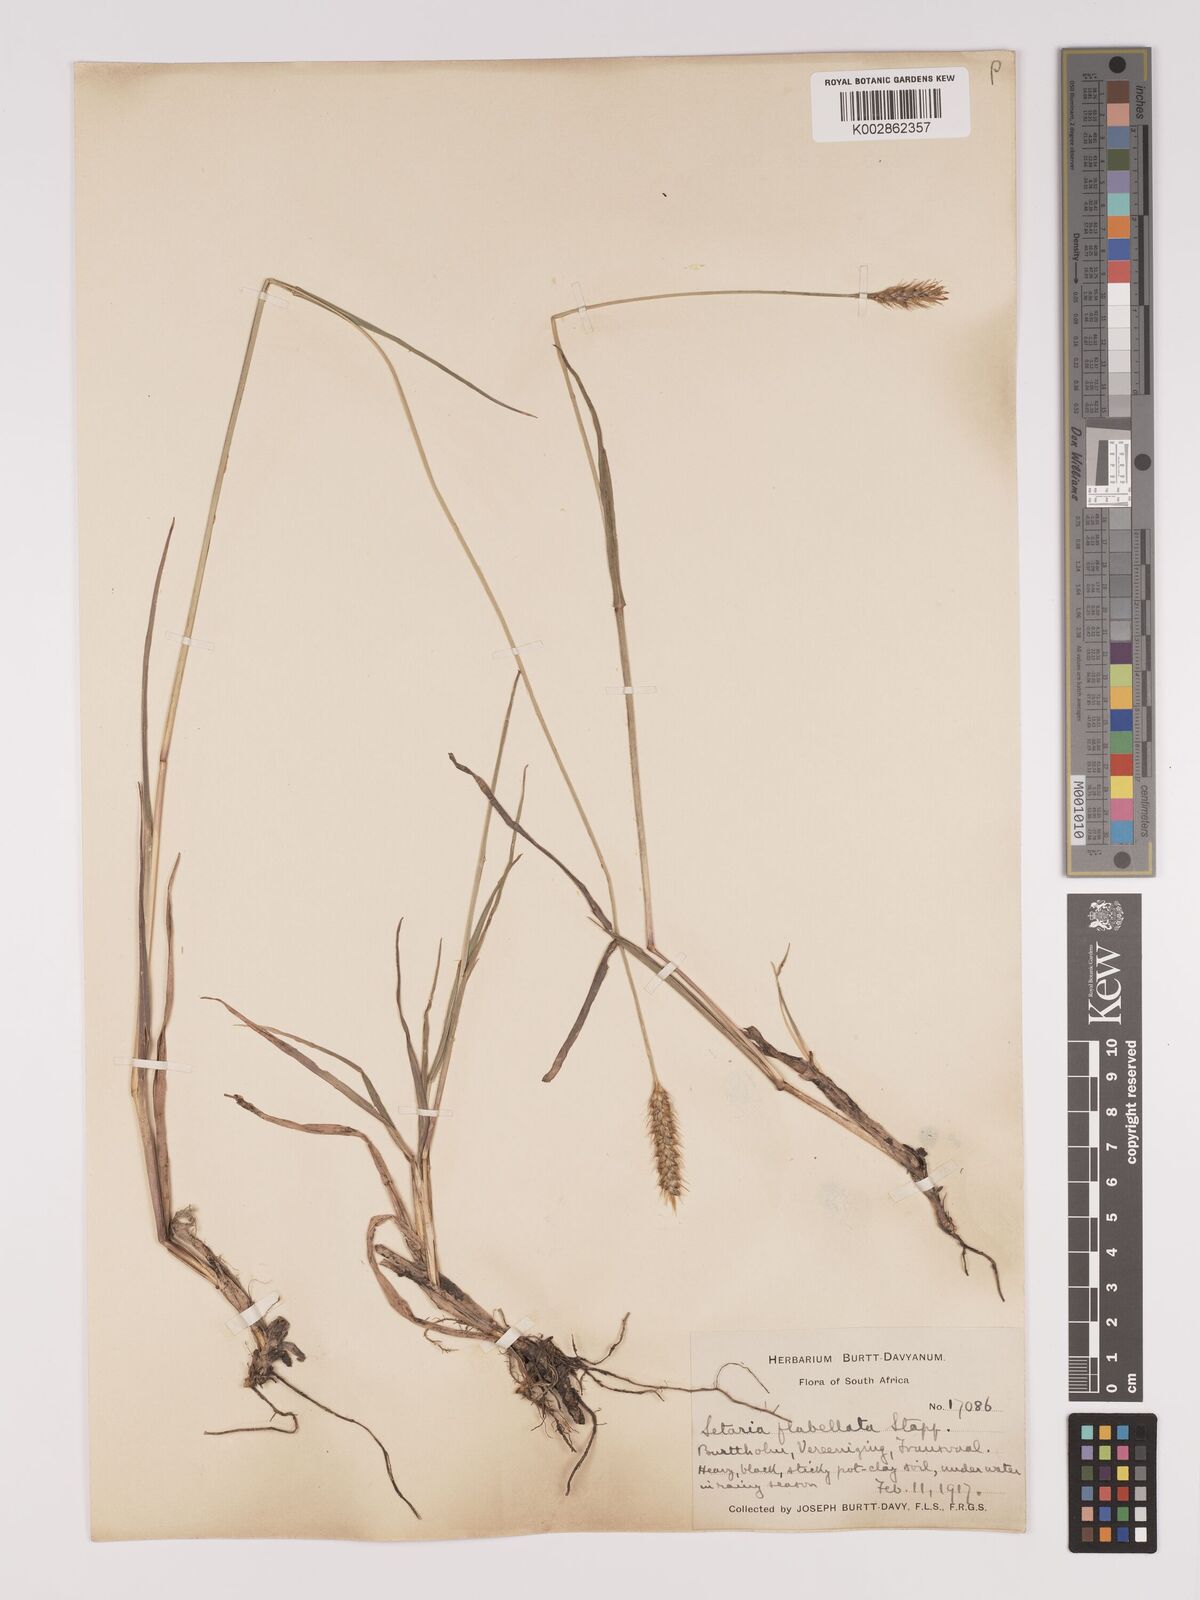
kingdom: Plantae
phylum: Tracheophyta
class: Liliopsida
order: Poales
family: Poaceae
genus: Setaria
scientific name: Setaria sphacelata
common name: African bristlegrass
